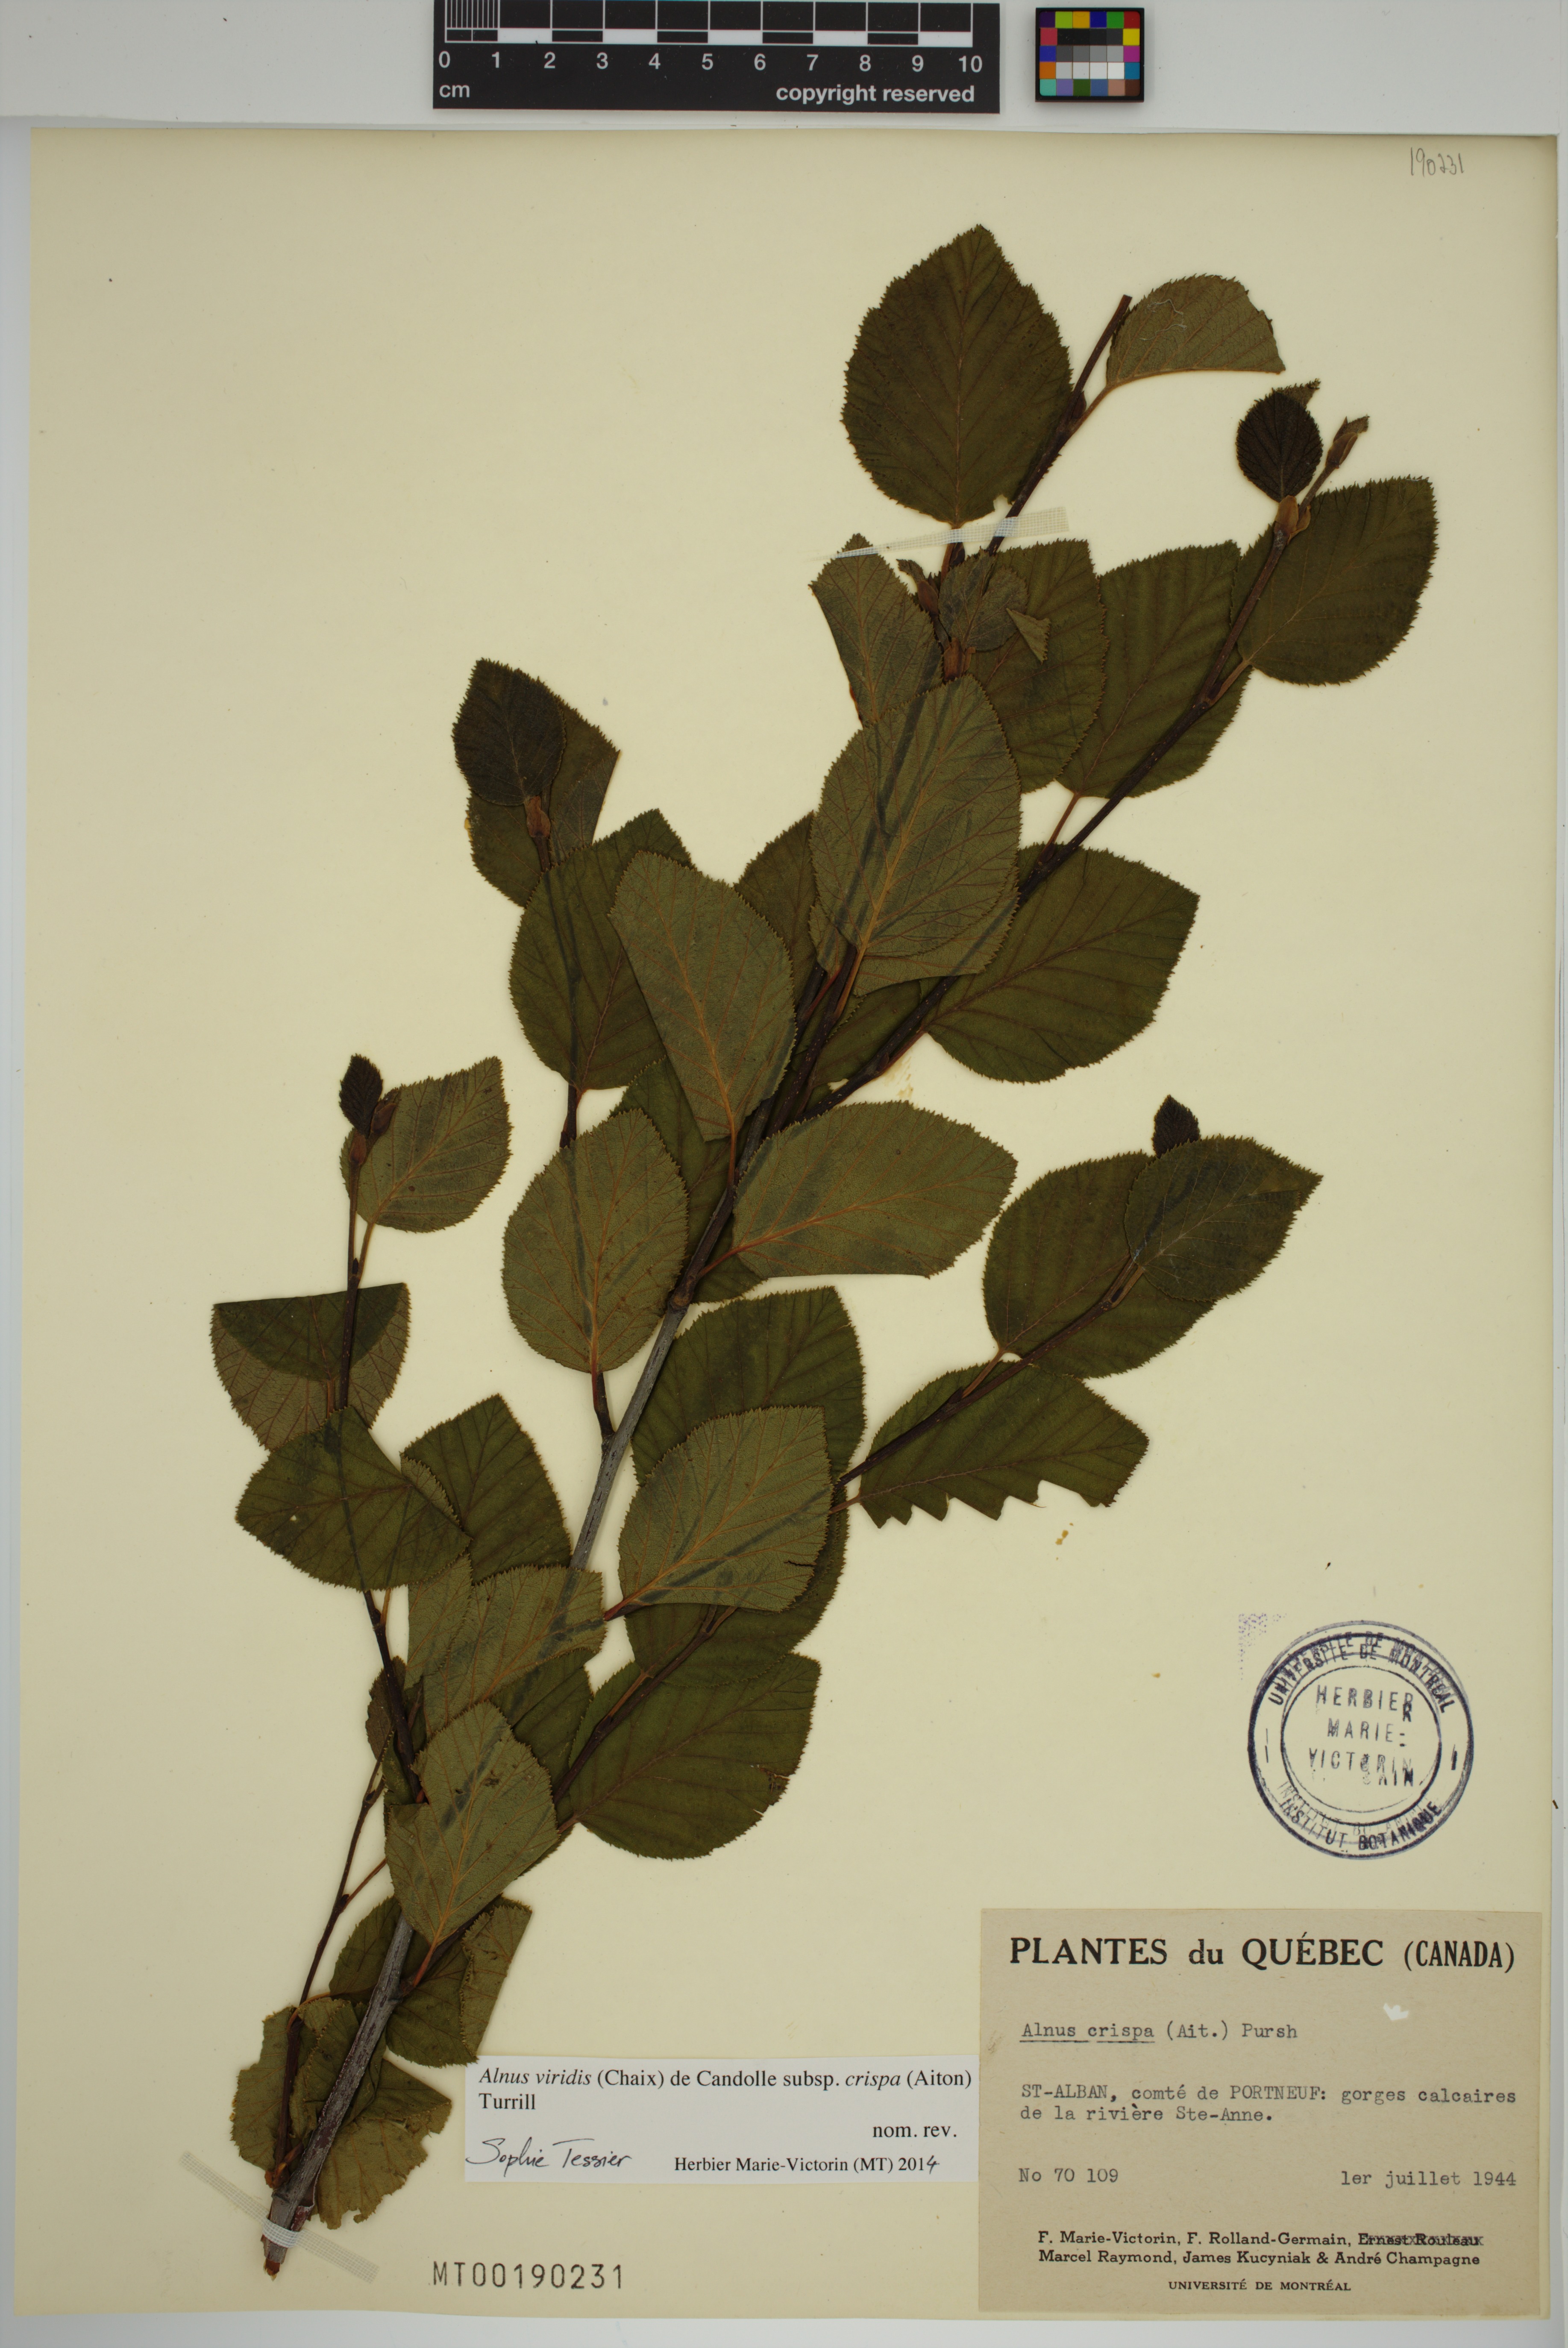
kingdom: Plantae
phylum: Tracheophyta
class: Magnoliopsida
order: Fagales
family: Betulaceae
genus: Alnus
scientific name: Alnus alnobetula
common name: Green alder
